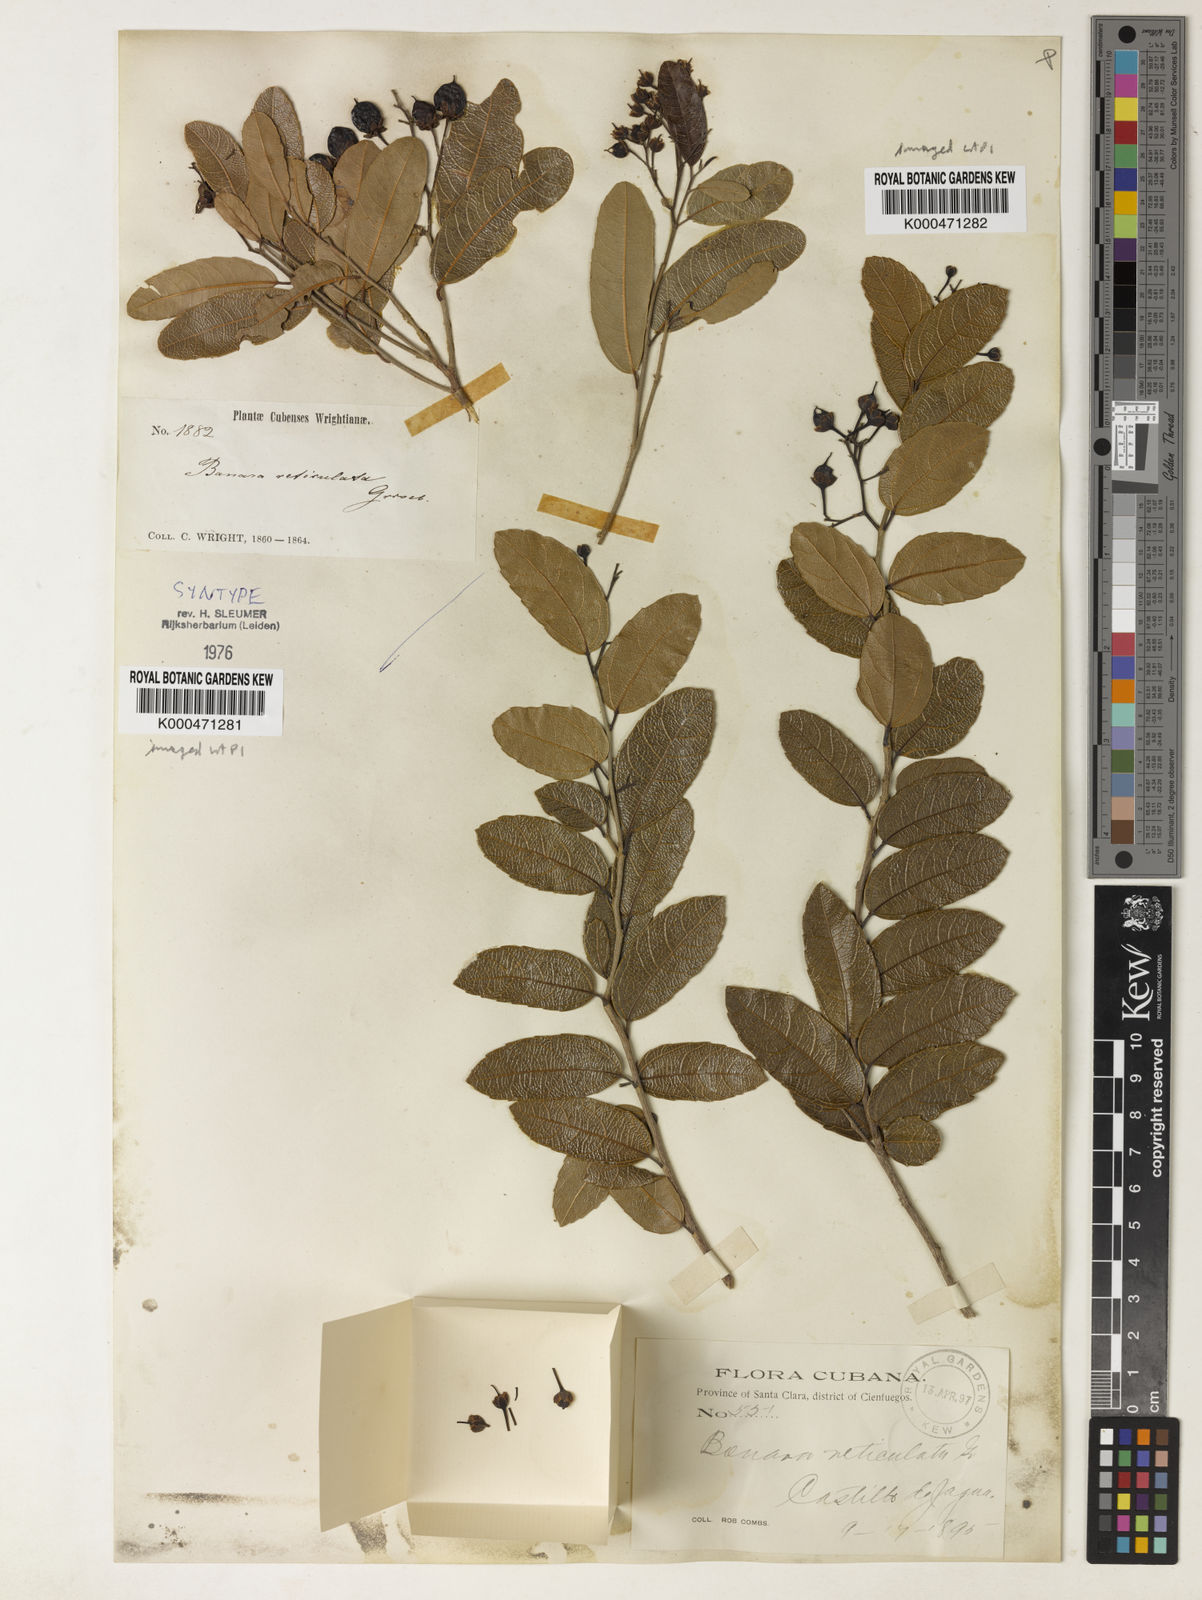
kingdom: Plantae
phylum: Tracheophyta
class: Magnoliopsida
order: Malpighiales
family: Salicaceae
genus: Banara
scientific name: Banara minutiflora
